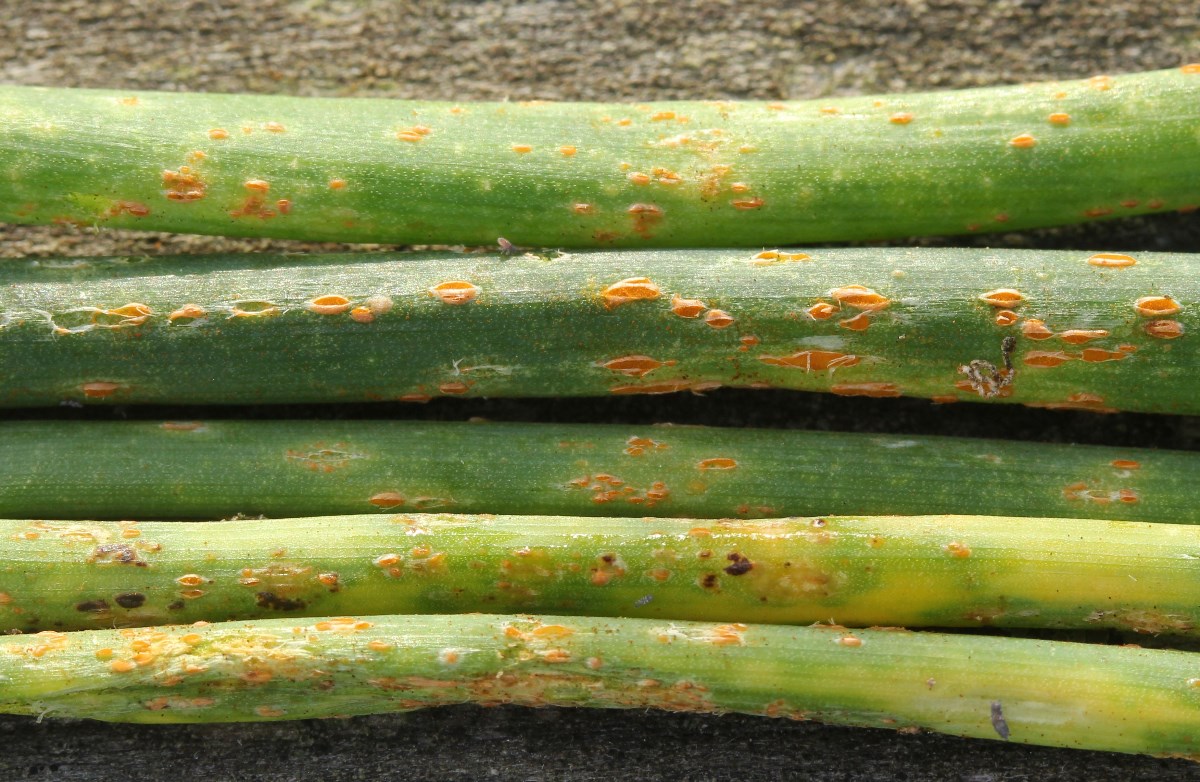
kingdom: Fungi
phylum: Basidiomycota
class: Pucciniomycetes
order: Pucciniales
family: Pucciniaceae
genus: Puccinia
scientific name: Puccinia porri
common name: Allium rust
